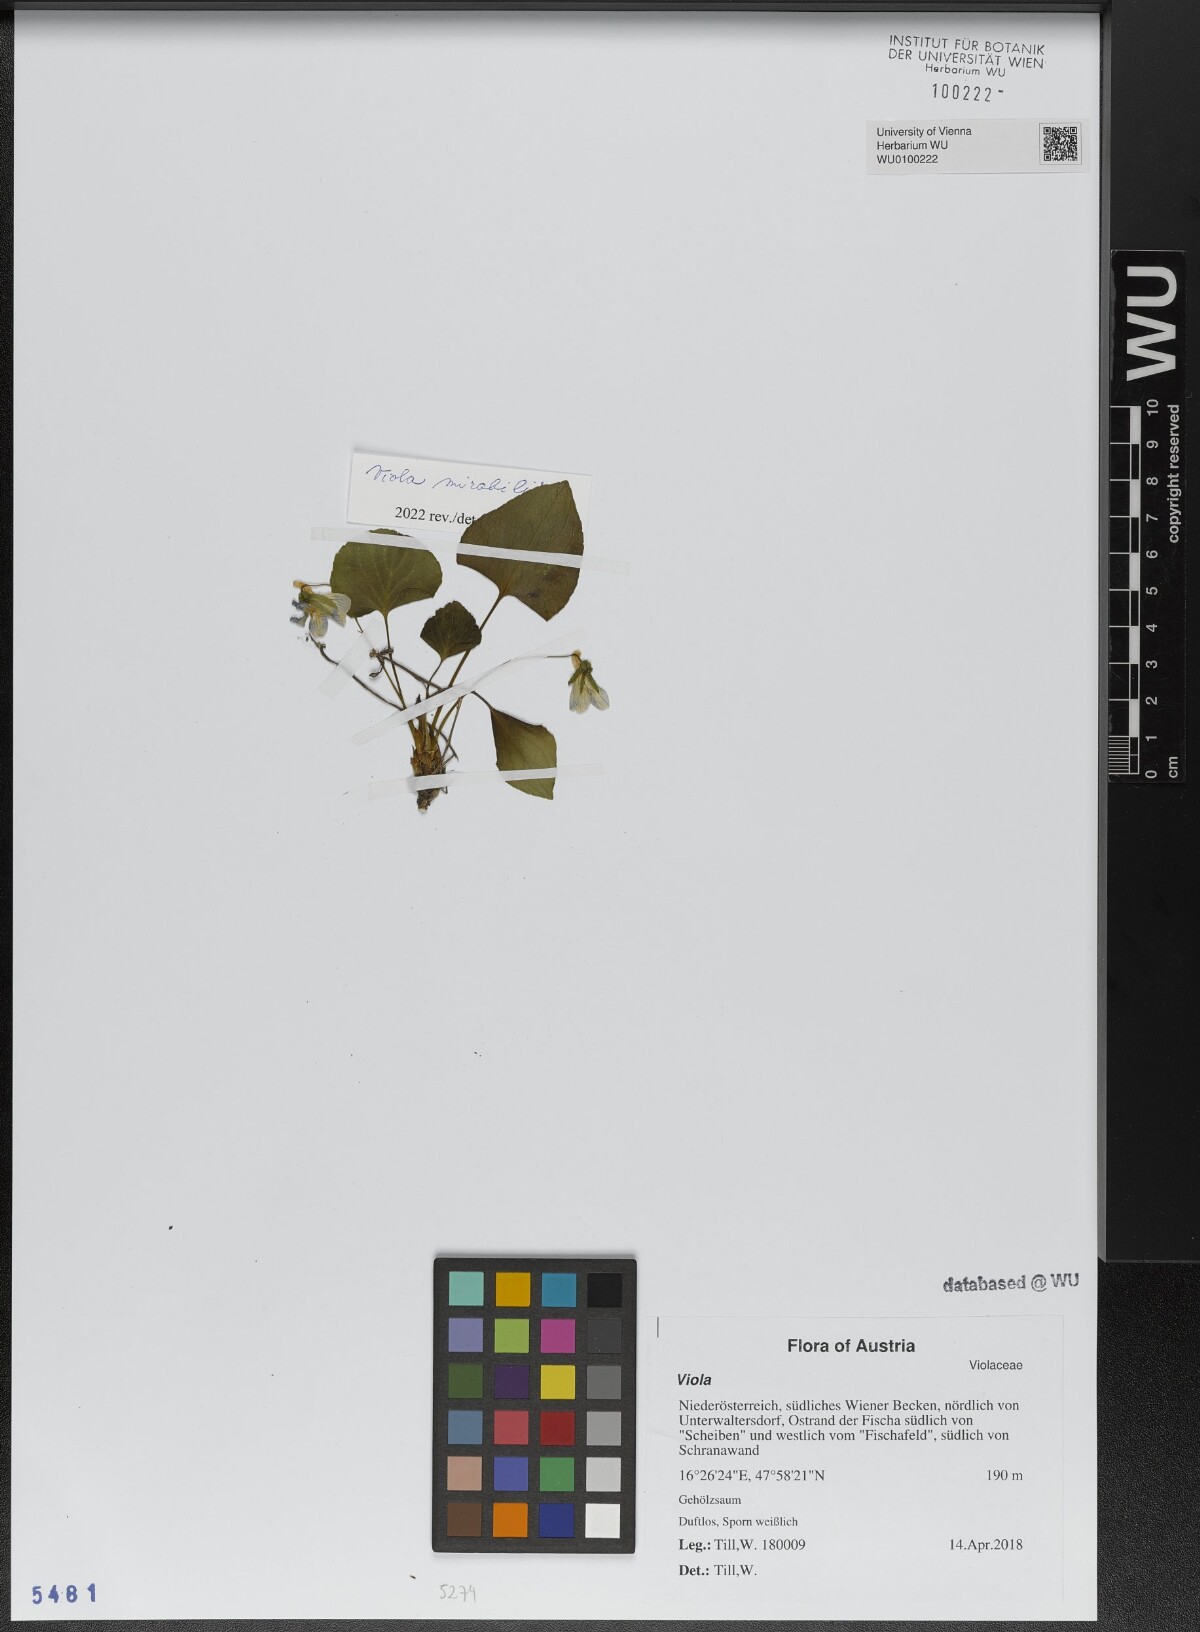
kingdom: Plantae
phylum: Tracheophyta
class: Magnoliopsida
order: Malpighiales
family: Violaceae
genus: Viola
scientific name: Viola mirabilis
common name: Wonder violet
